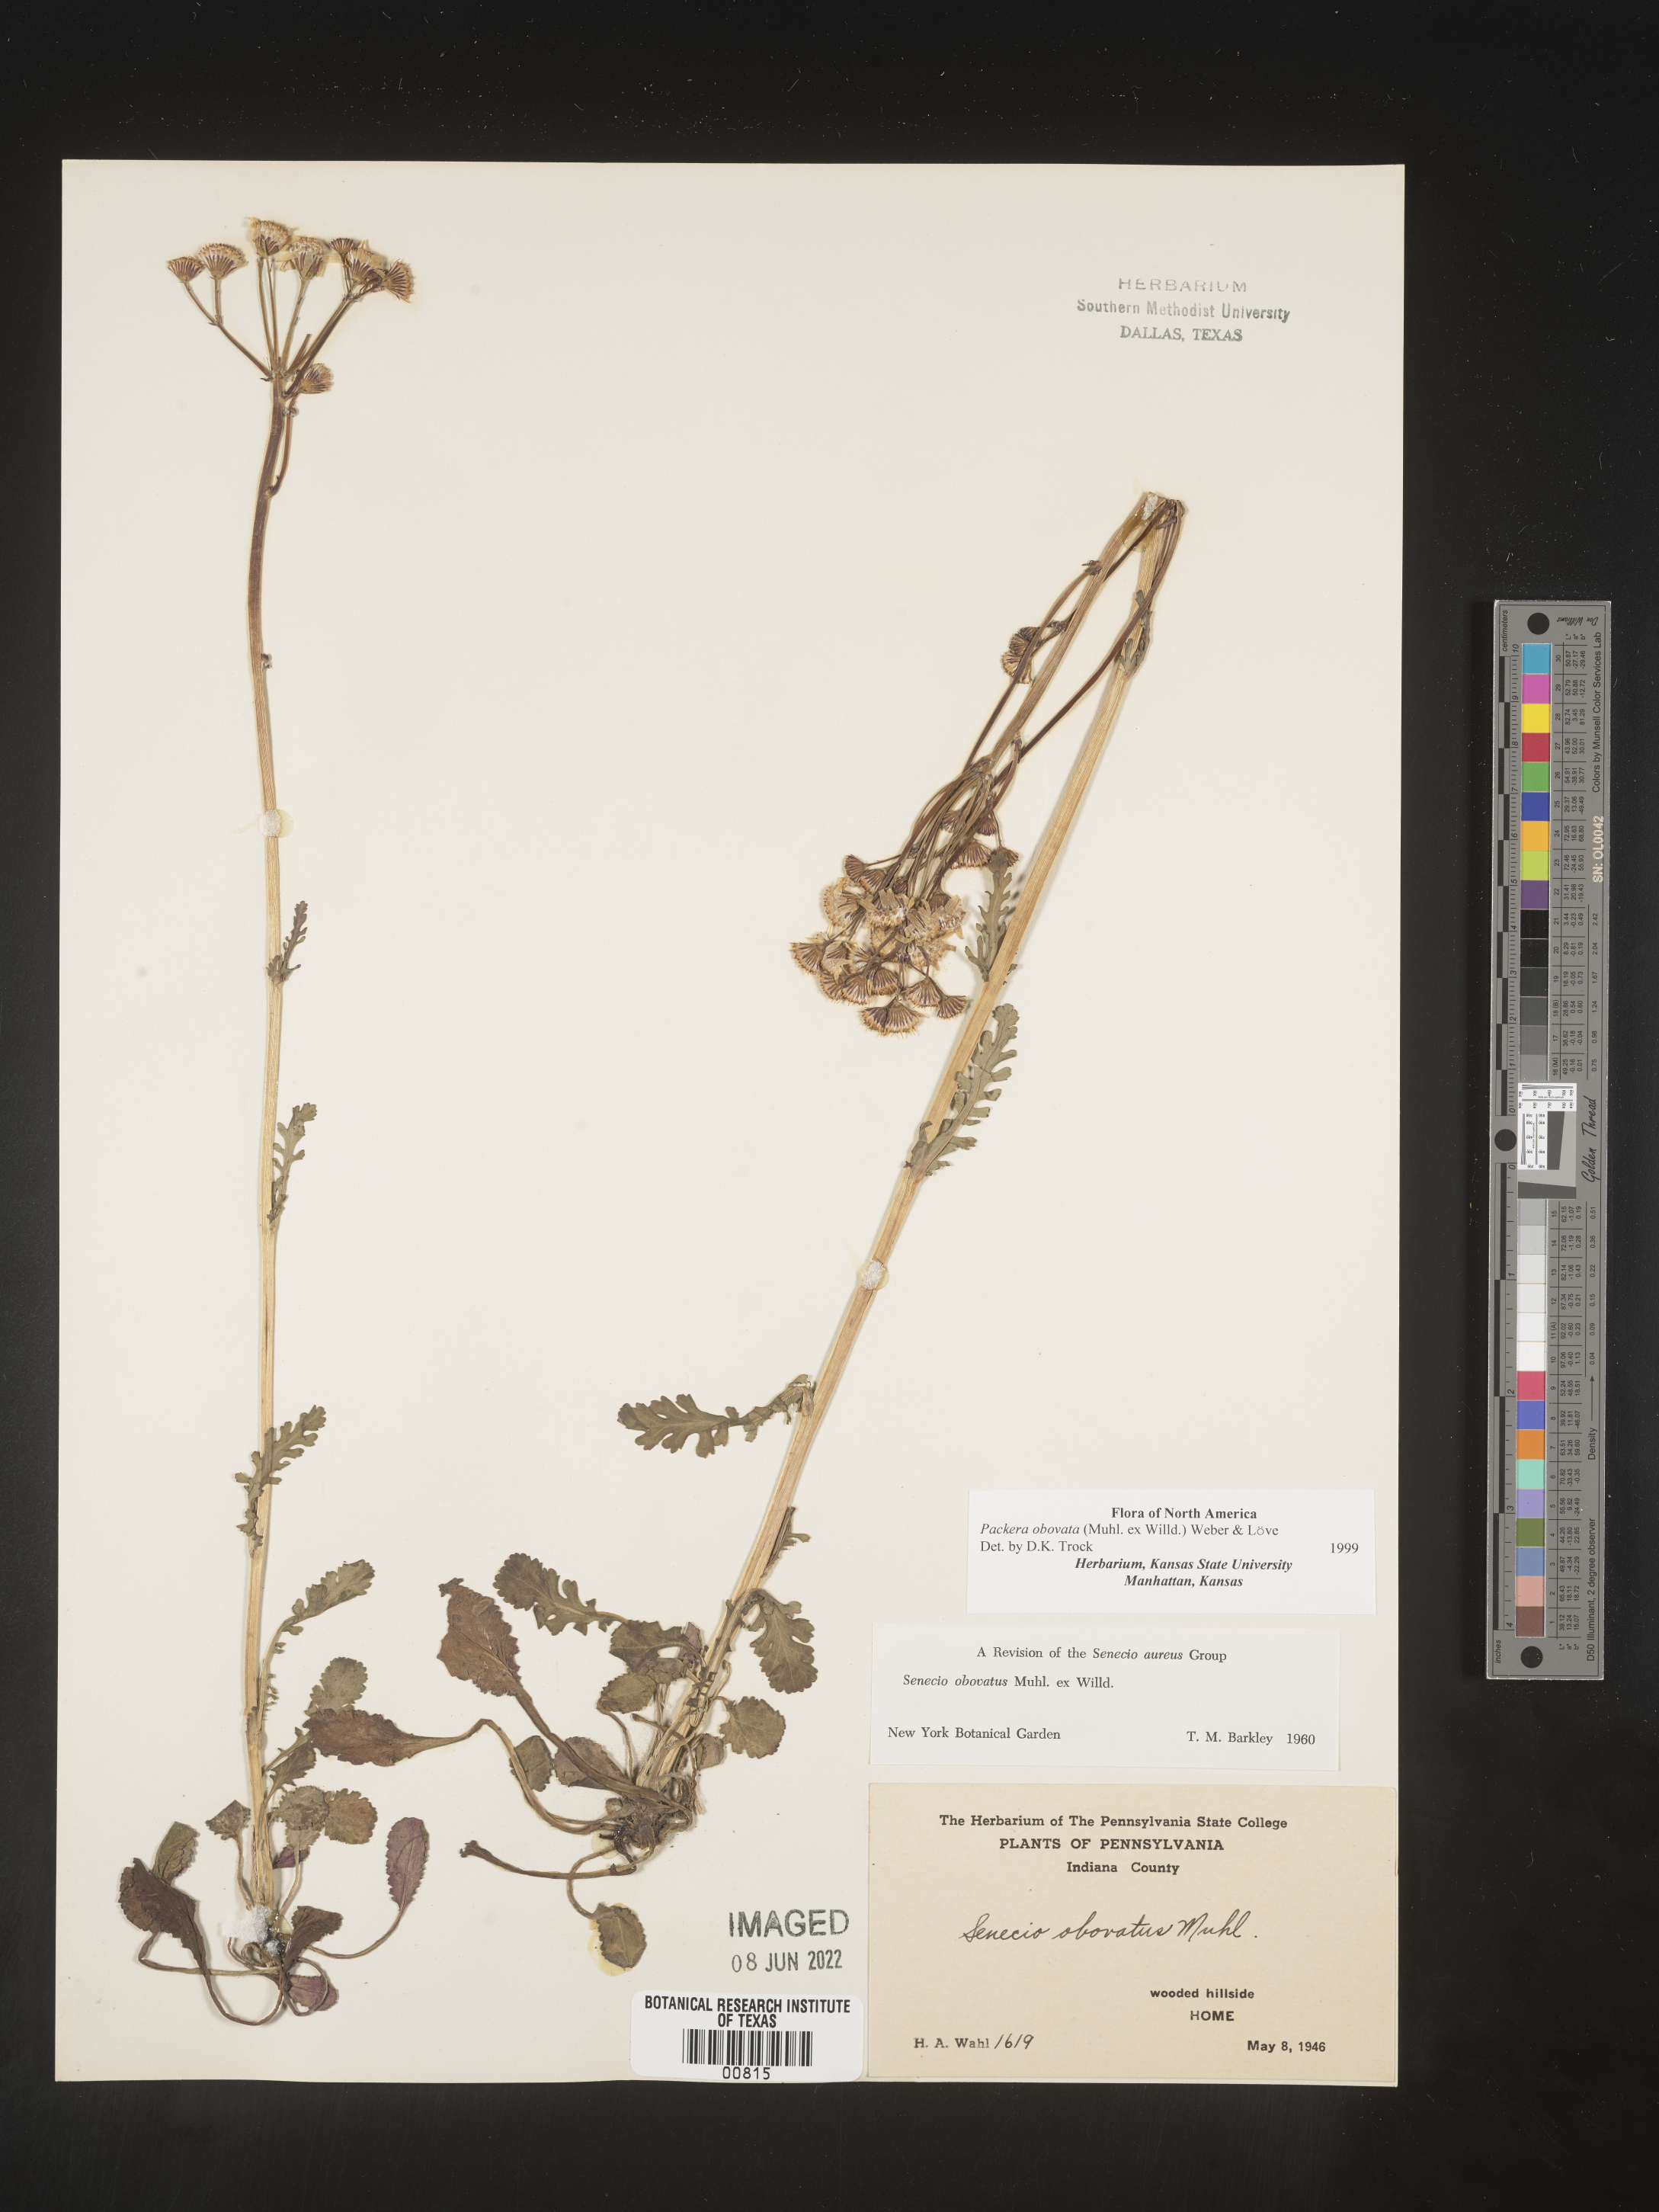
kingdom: Plantae
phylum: Tracheophyta
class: Magnoliopsida
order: Asterales
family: Asteraceae
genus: Packera
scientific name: Packera obovata
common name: Round-leaf ragwort
